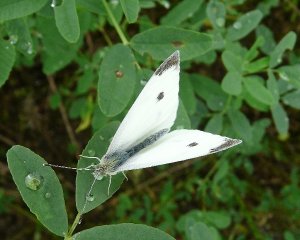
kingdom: Animalia
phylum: Arthropoda
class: Insecta
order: Lepidoptera
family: Pieridae
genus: Pieris
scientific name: Pieris rapae
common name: Cabbage White
